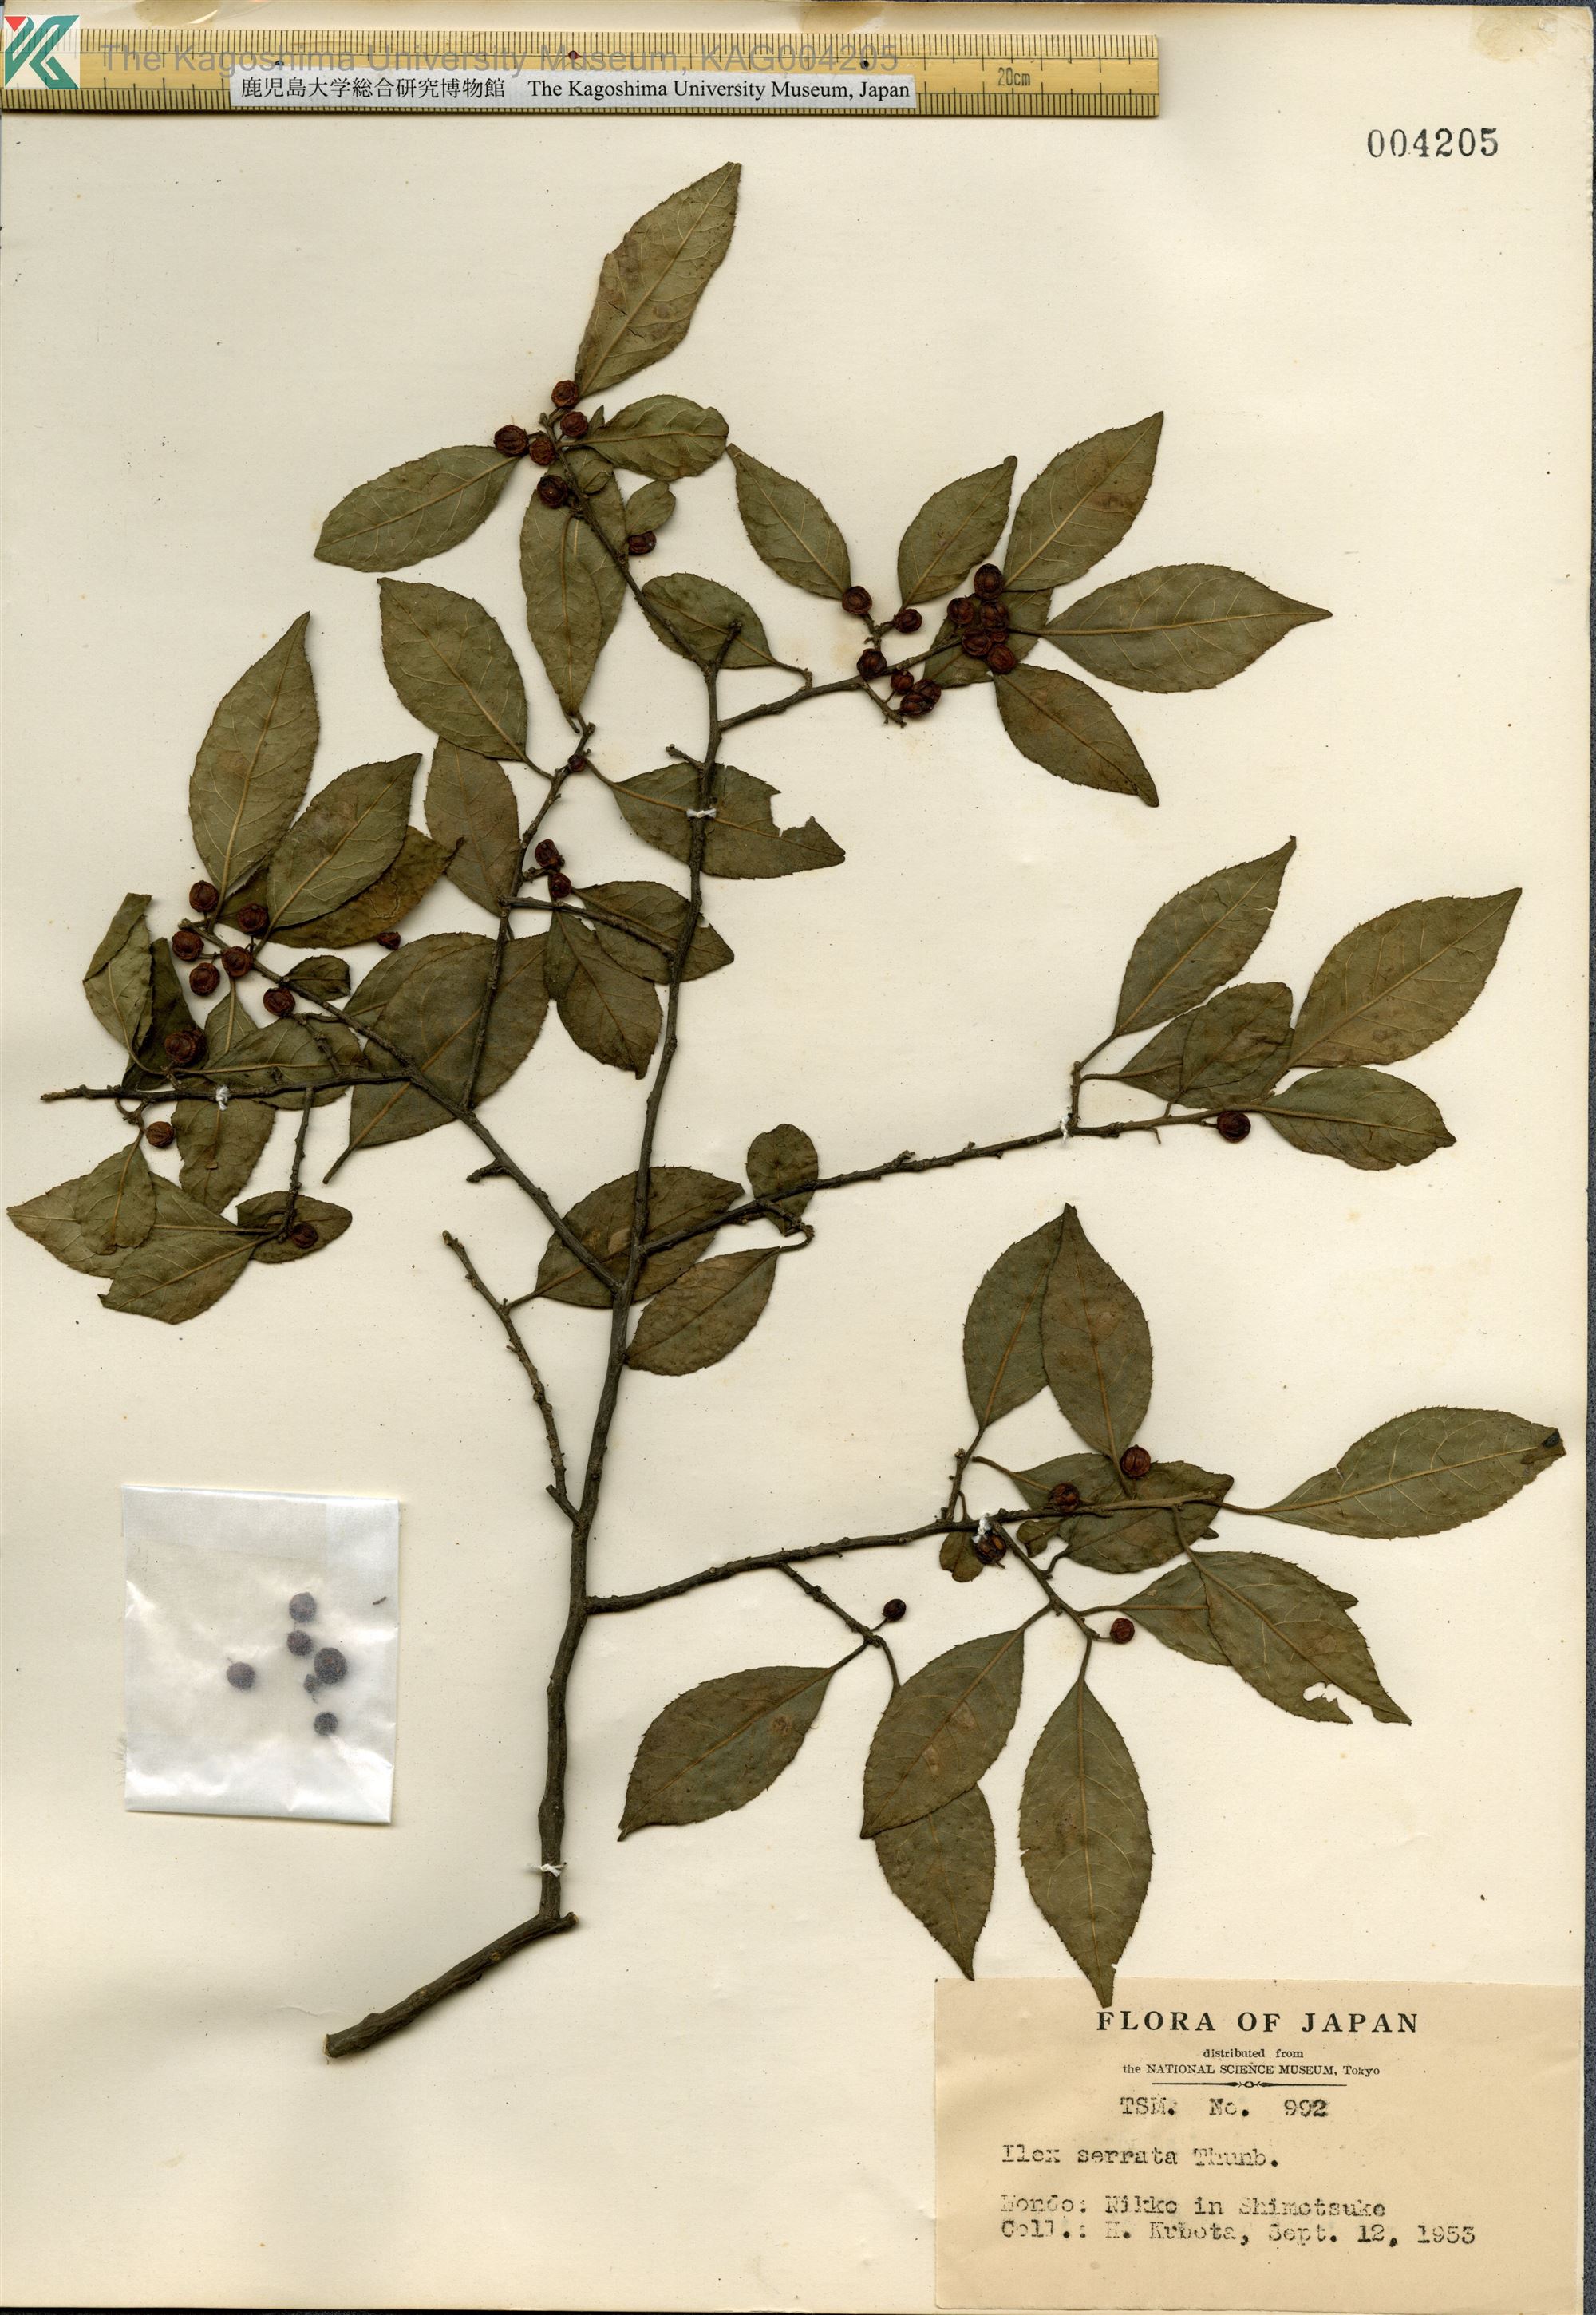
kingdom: Plantae
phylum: Tracheophyta
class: Magnoliopsida
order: Aquifoliales
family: Aquifoliaceae
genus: Ilex
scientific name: Ilex serrata
